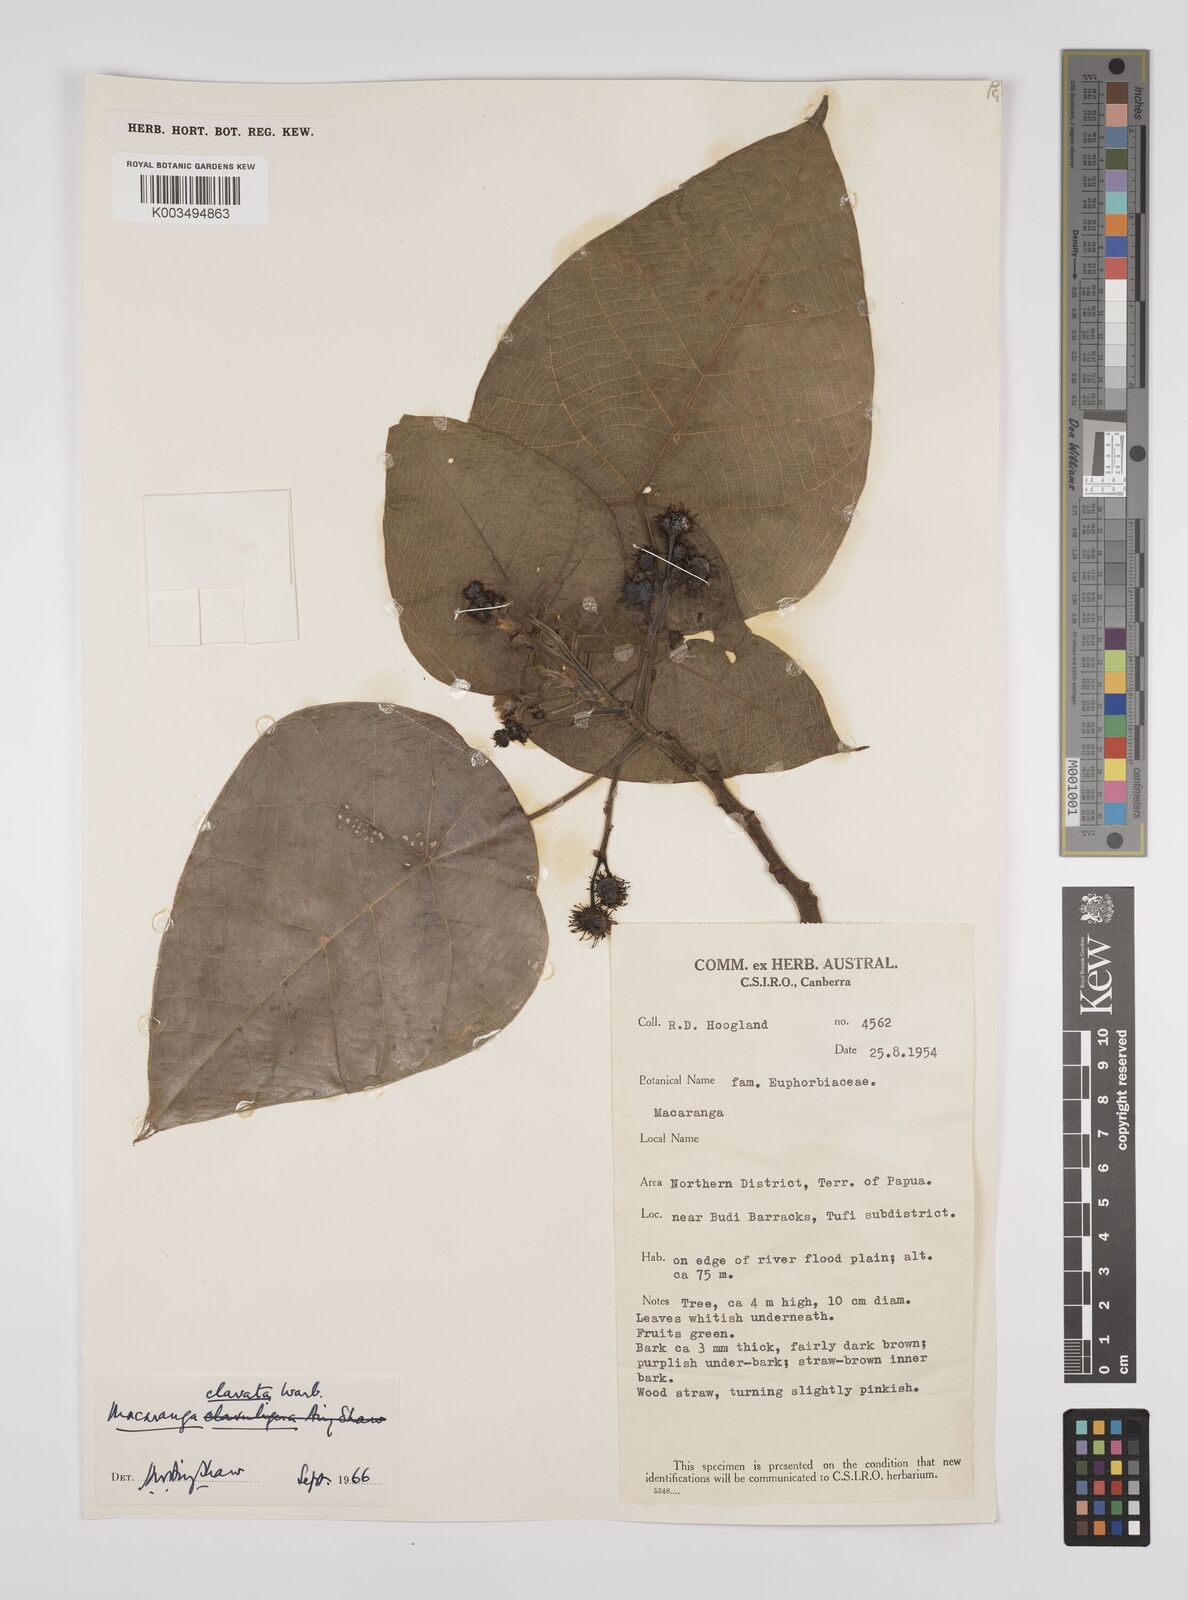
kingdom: Plantae
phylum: Tracheophyta
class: Magnoliopsida
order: Malpighiales
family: Euphorbiaceae
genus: Macaranga
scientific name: Macaranga clavata
